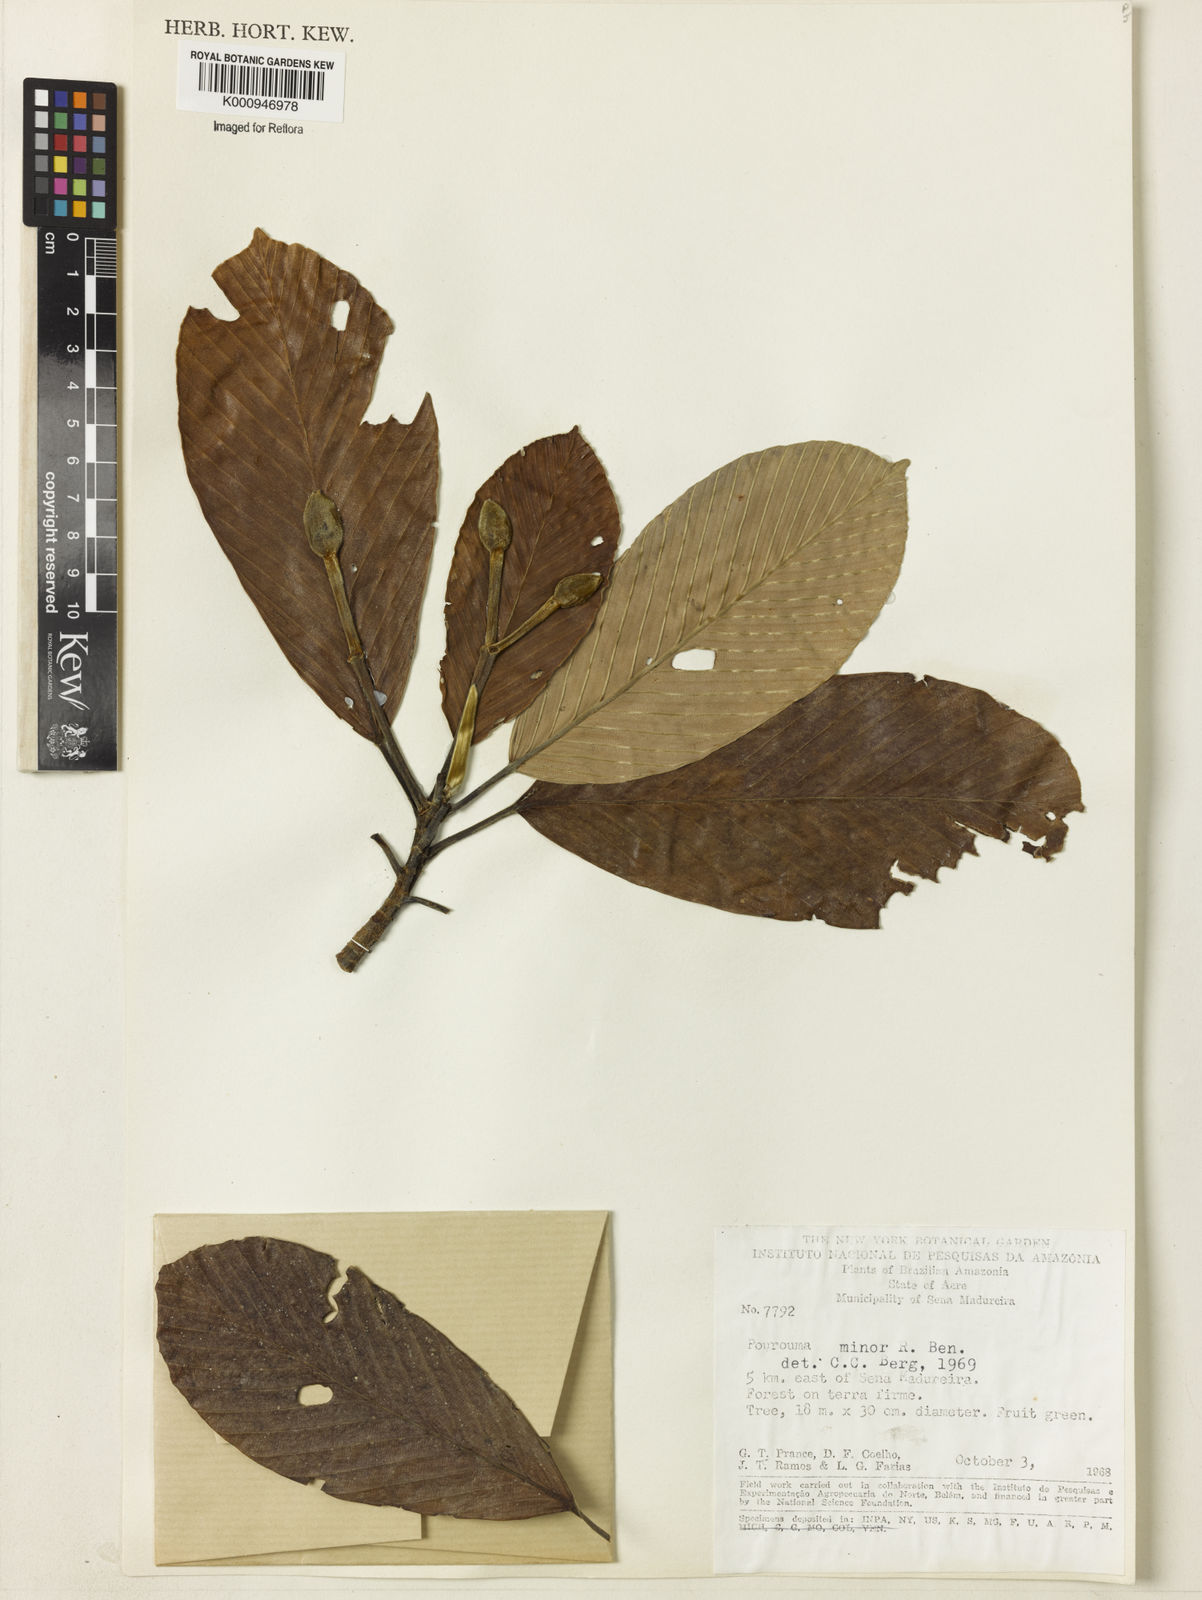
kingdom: Plantae
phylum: Tracheophyta
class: Magnoliopsida
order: Rosales
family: Urticaceae
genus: Pourouma
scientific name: Pourouma minor
